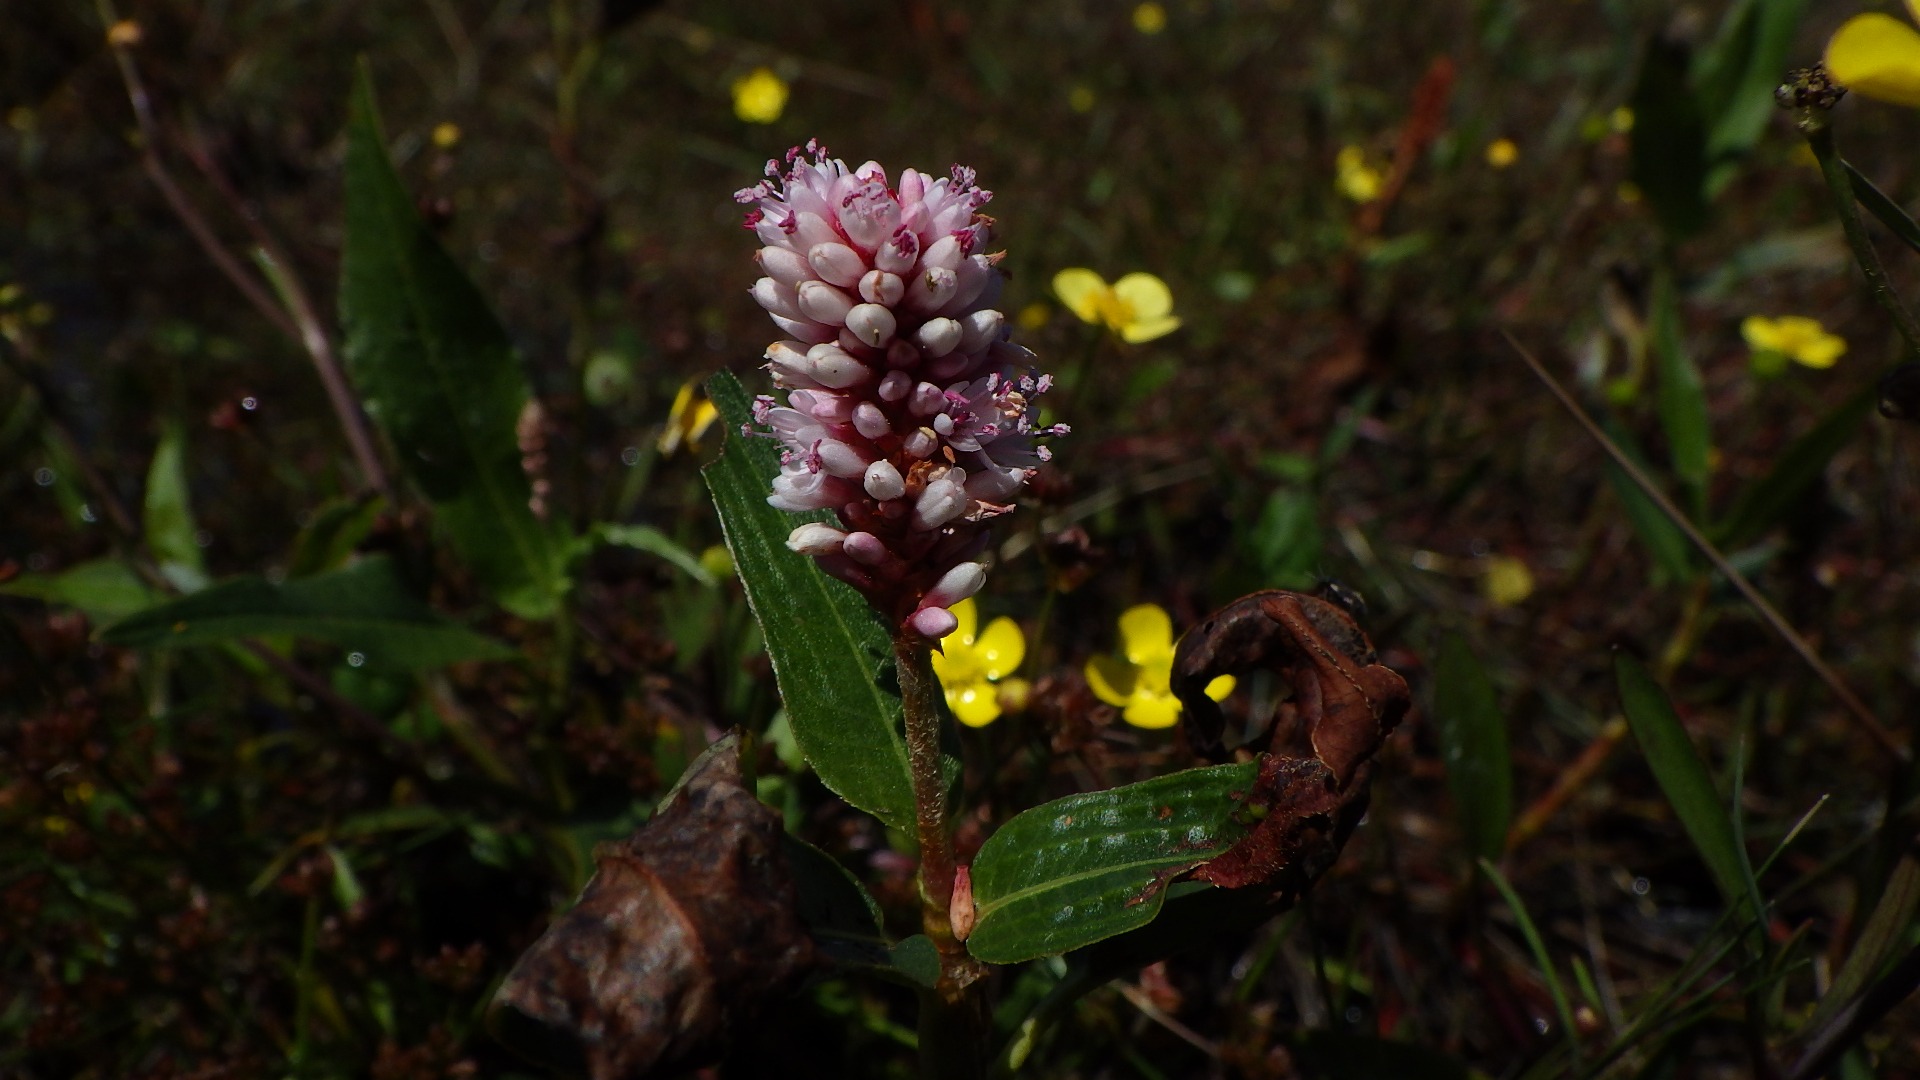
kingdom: Plantae
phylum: Tracheophyta
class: Magnoliopsida
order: Caryophyllales
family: Polygonaceae
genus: Persicaria
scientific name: Persicaria amphibia
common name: Vand-pileurt
